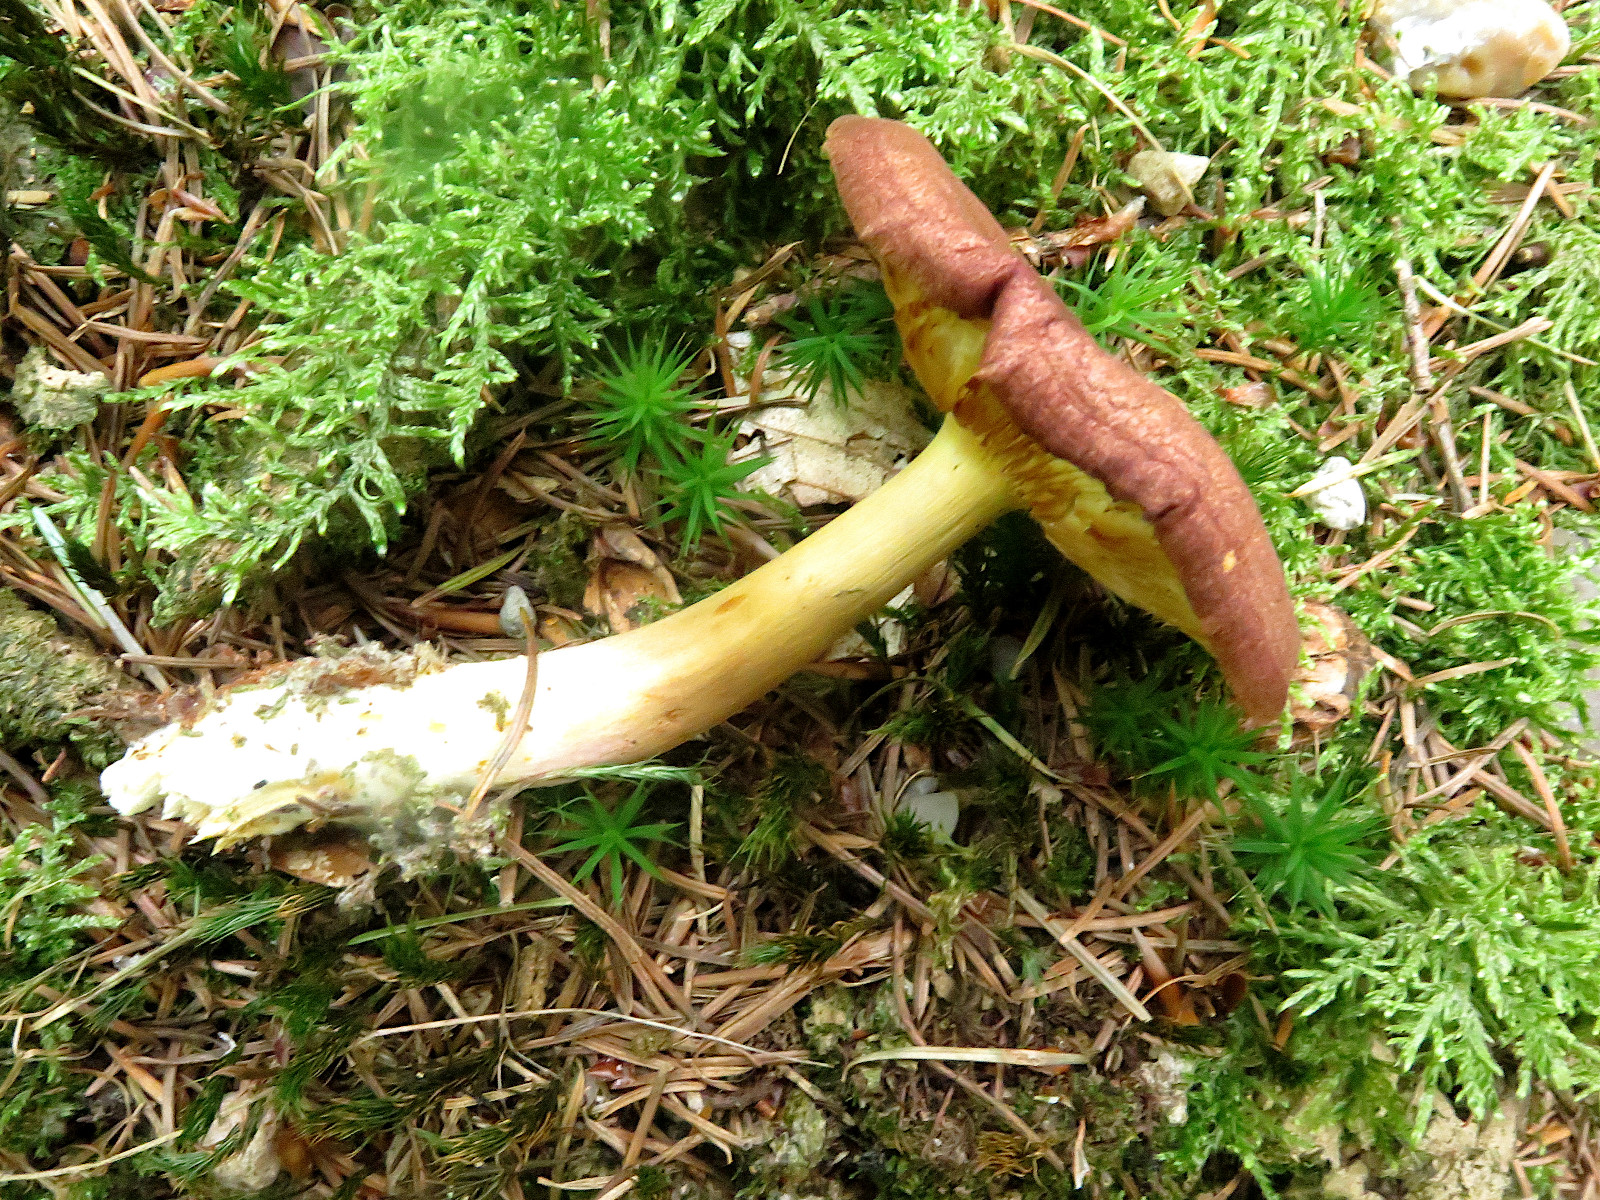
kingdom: Fungi
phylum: Basidiomycota
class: Agaricomycetes
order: Agaricales
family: Tricholomataceae
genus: Tricholomopsis
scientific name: Tricholomopsis rutilans
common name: purpur-væbnerhat
